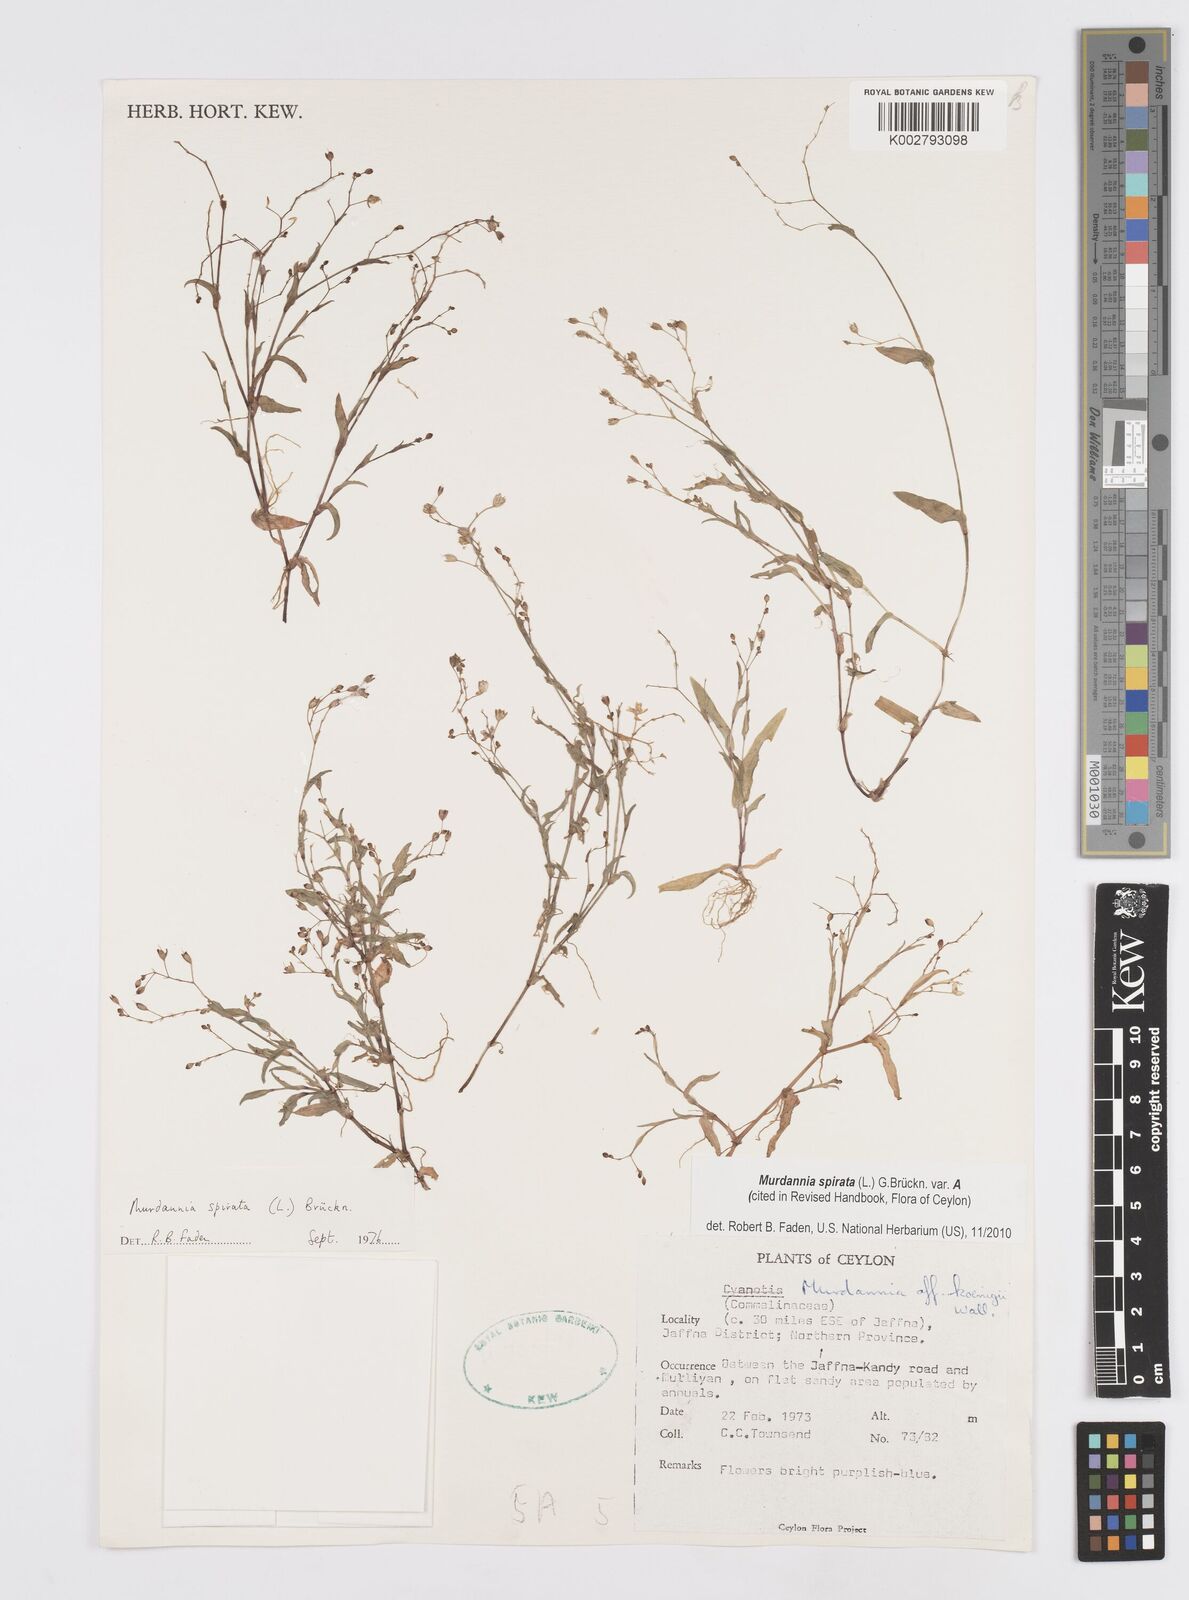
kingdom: Plantae
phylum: Tracheophyta
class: Liliopsida
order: Commelinales
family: Commelinaceae
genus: Murdannia
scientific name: Murdannia spirata
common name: Asiatic dewflower
